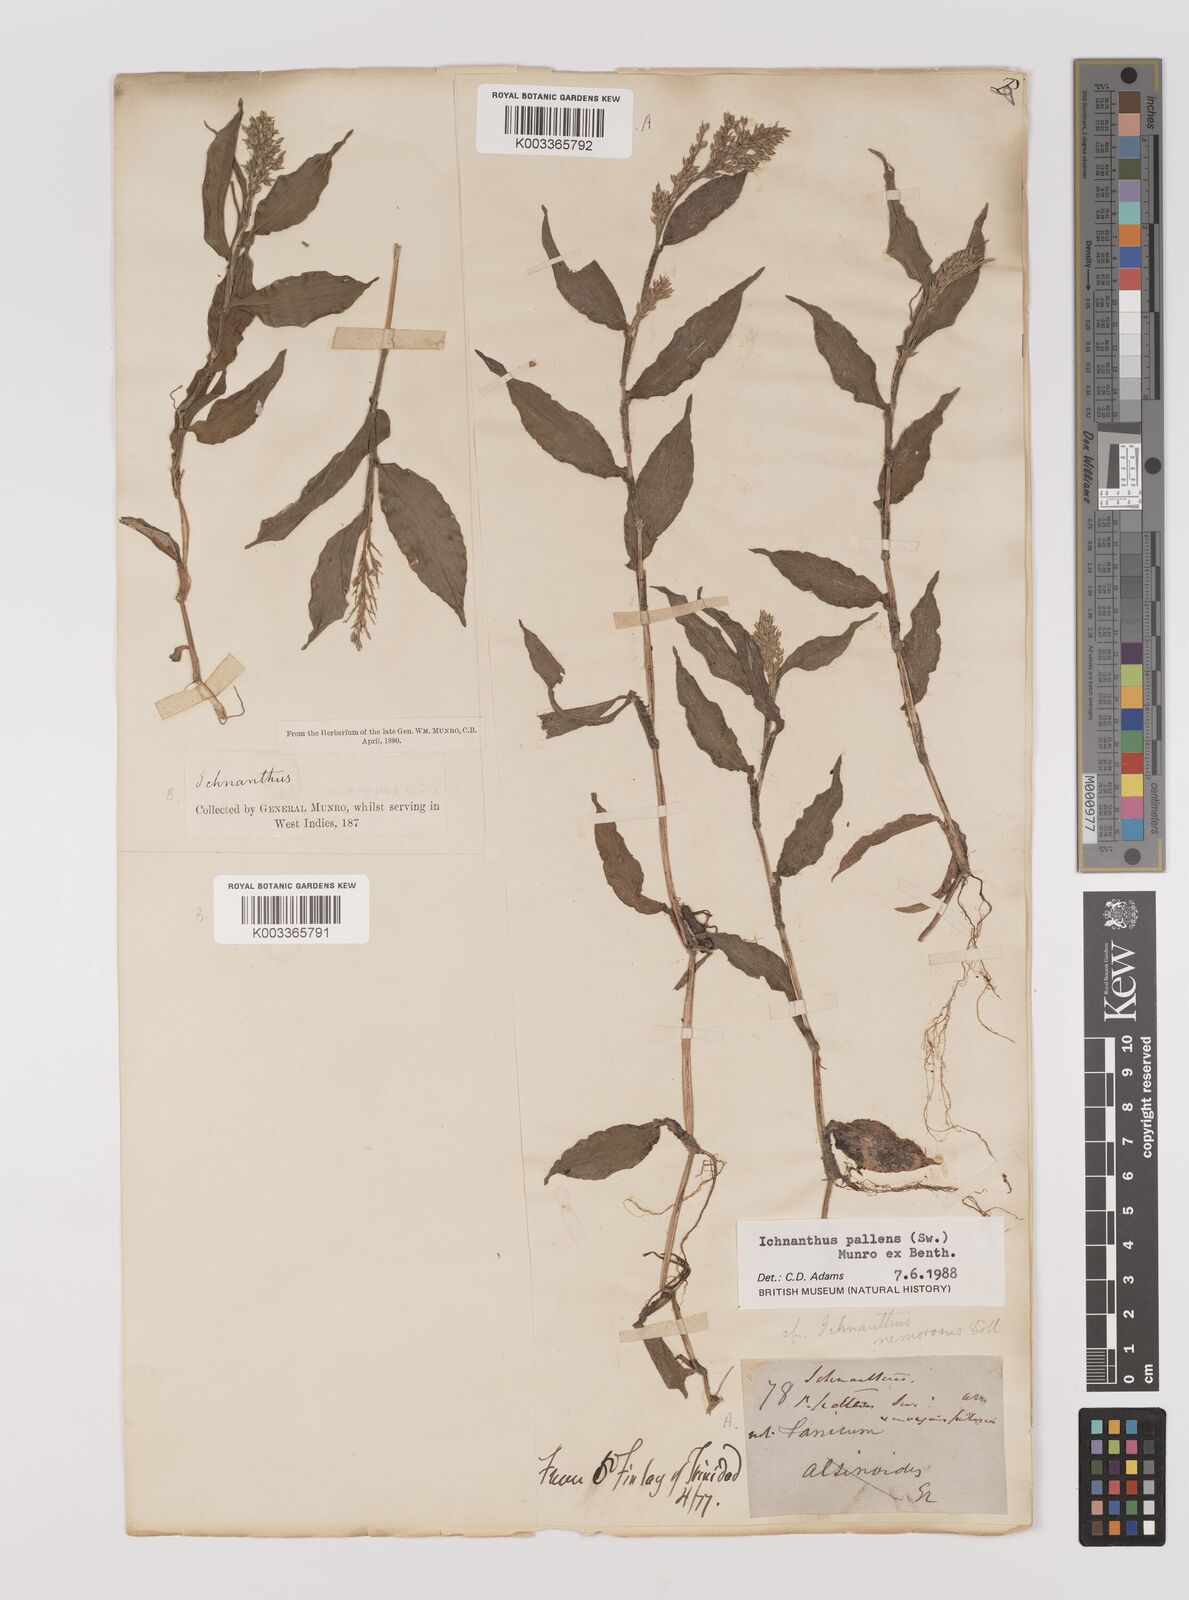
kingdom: Plantae
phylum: Tracheophyta
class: Liliopsida
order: Poales
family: Poaceae
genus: Ichnanthus
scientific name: Ichnanthus pallens
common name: Water grass
